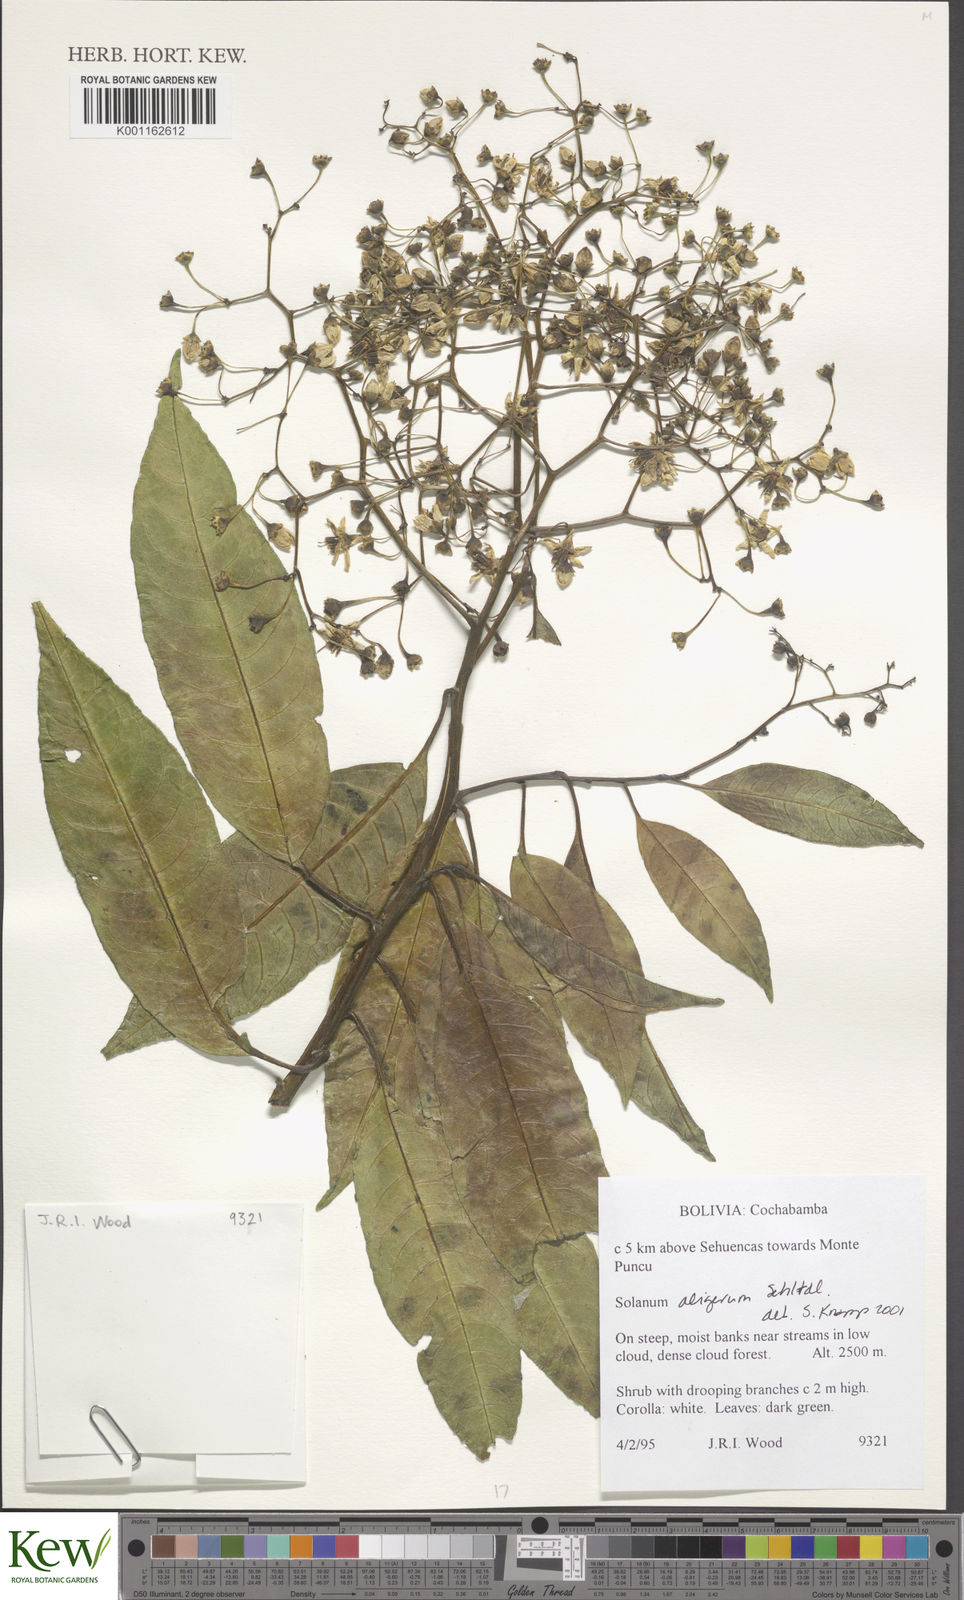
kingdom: Plantae
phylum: Tracheophyta
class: Magnoliopsida
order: Solanales
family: Solanaceae
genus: Solanum
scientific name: Solanum aligerum
